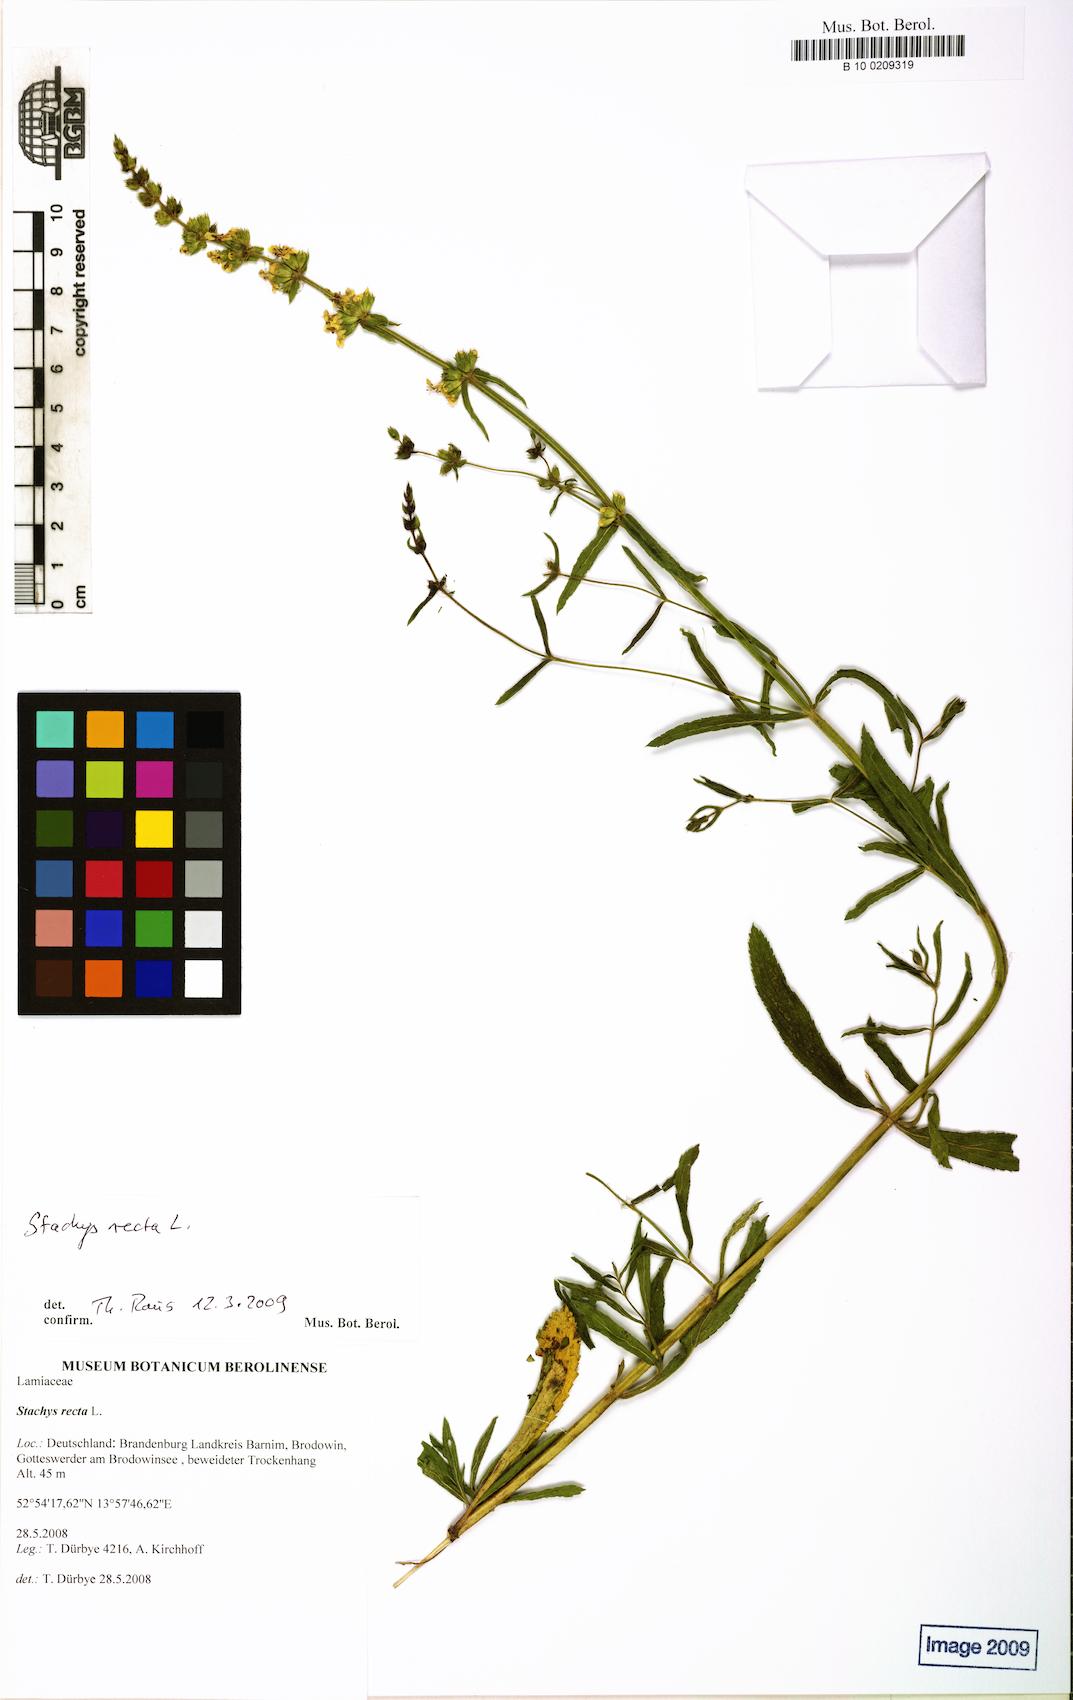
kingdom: Plantae
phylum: Tracheophyta
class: Magnoliopsida
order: Lamiales
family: Lamiaceae
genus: Stachys
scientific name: Stachys recta
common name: Perennial yellow-woundwort
